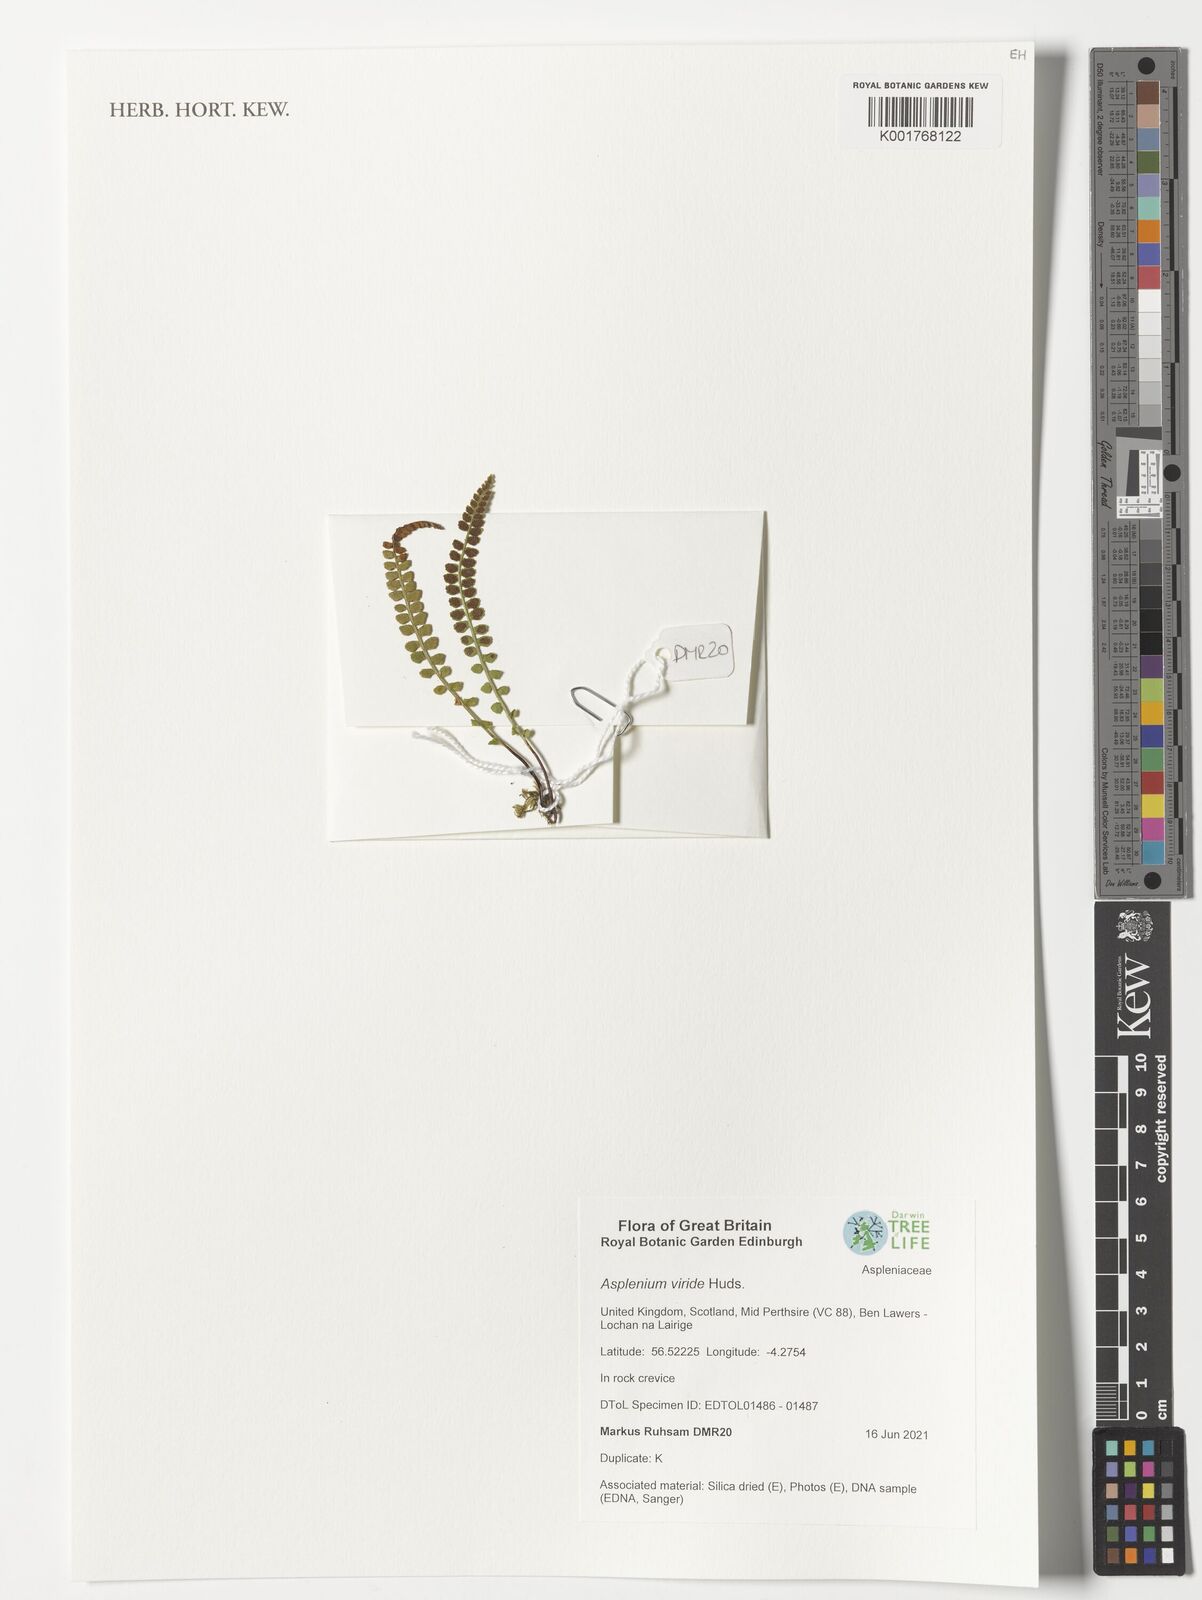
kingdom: Plantae
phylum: Tracheophyta
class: Polypodiopsida
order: Polypodiales
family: Aspleniaceae
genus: Asplenium
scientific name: Asplenium viride
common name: Green spleenwort
